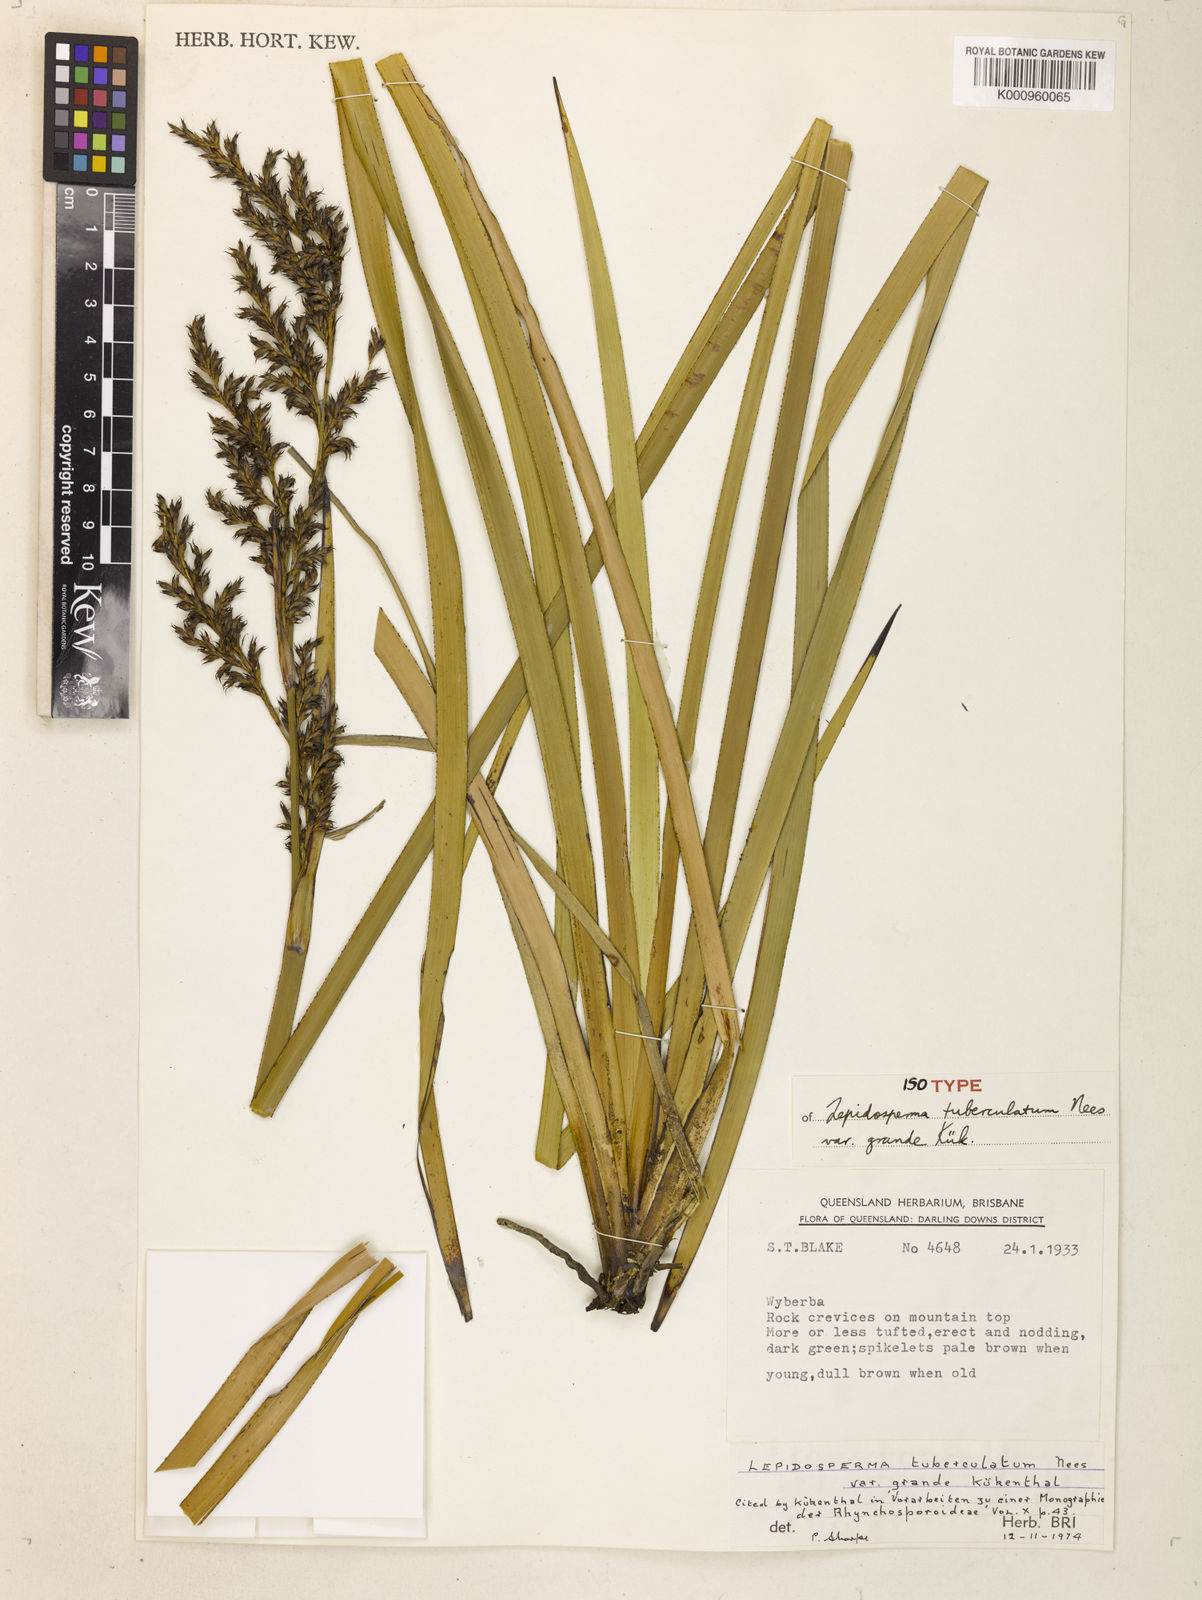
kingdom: Plantae
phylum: Tracheophyta
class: Liliopsida
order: Poales
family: Cyperaceae
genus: Lepidosperma
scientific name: Lepidosperma
